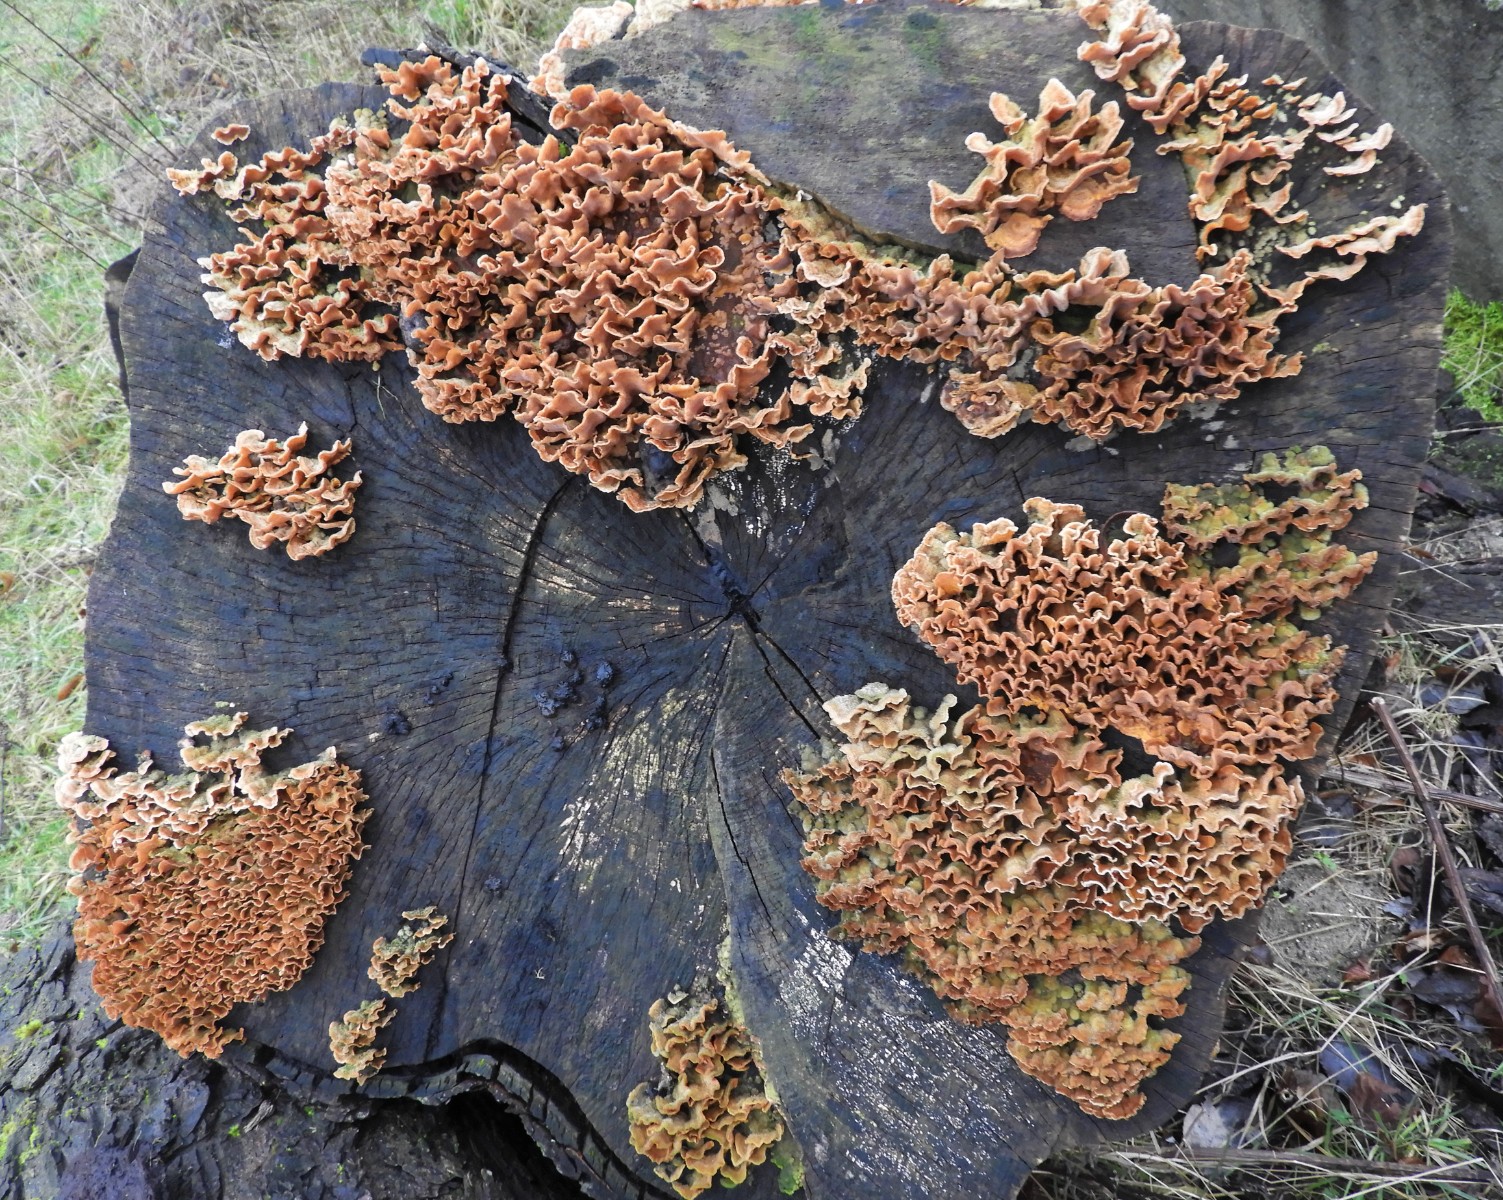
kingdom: Fungi
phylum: Basidiomycota
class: Agaricomycetes
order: Russulales
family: Stereaceae
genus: Stereum
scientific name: Stereum hirsutum
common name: håret lædersvamp
